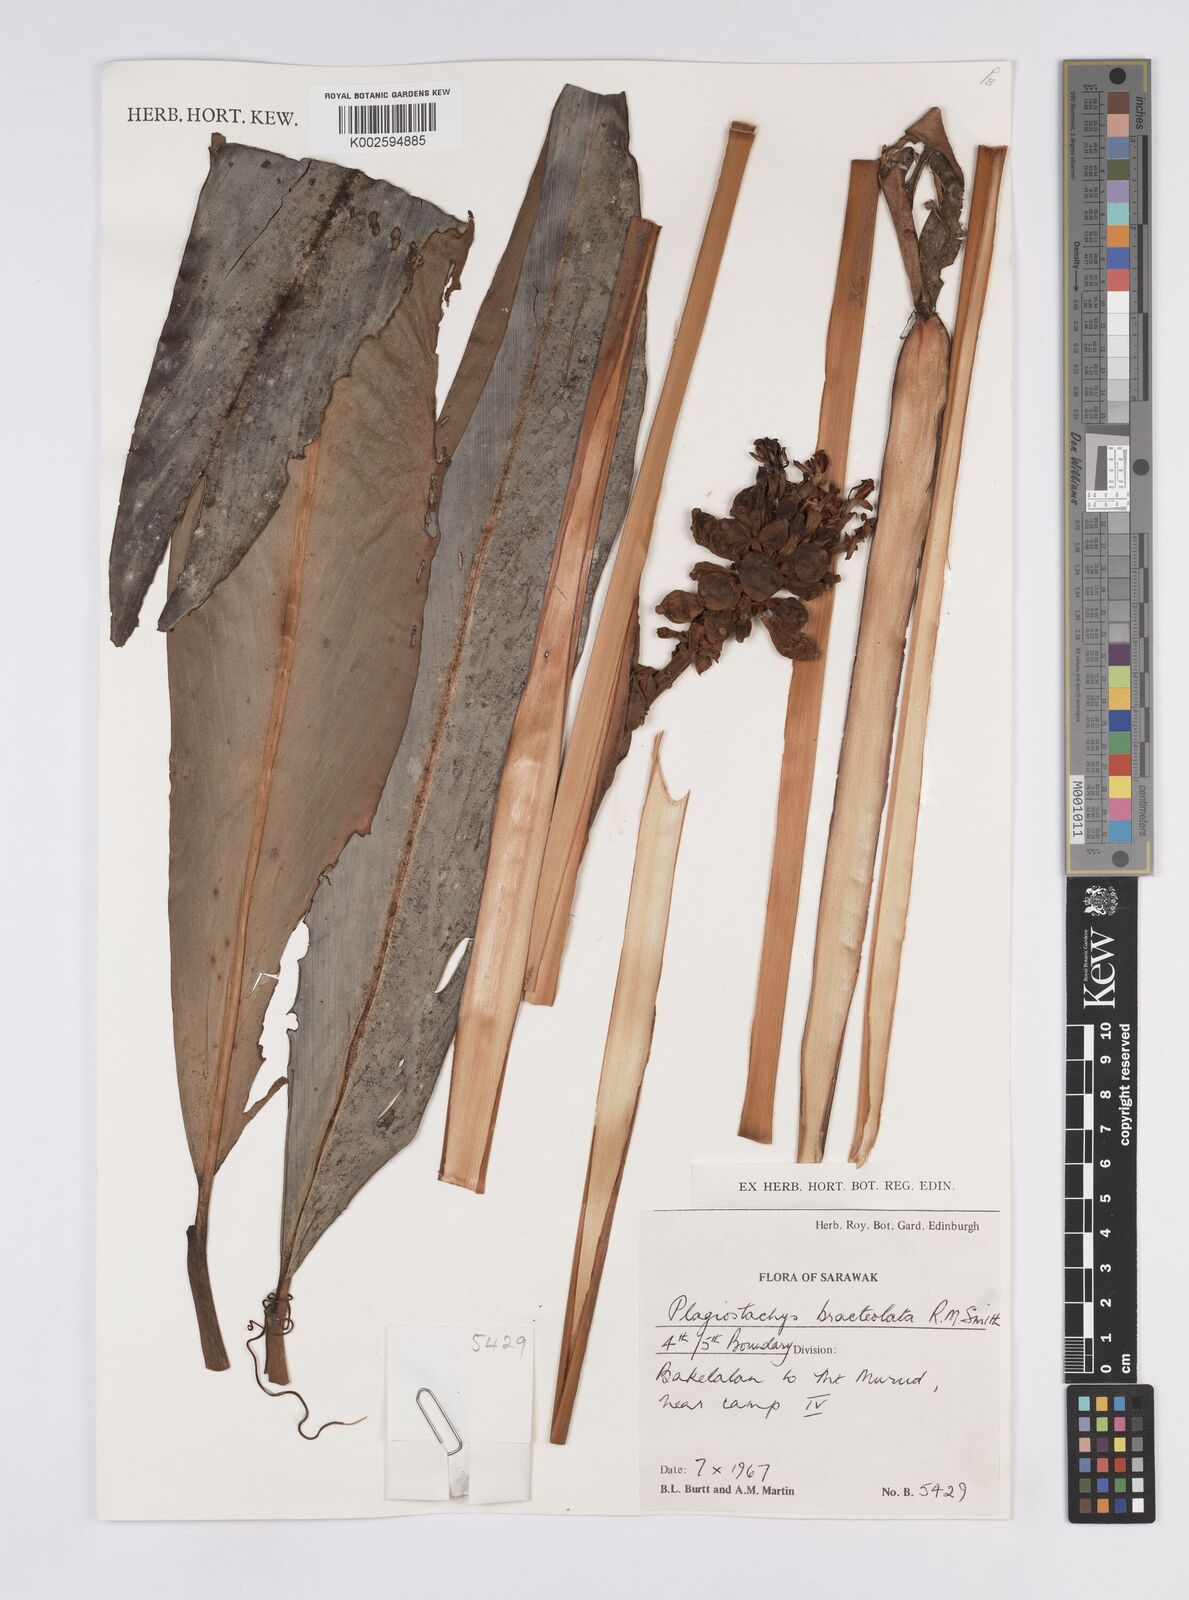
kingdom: Plantae
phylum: Tracheophyta
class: Liliopsida
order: Zingiberales
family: Zingiberaceae
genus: Plagiostachys
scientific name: Plagiostachys bracteolata
